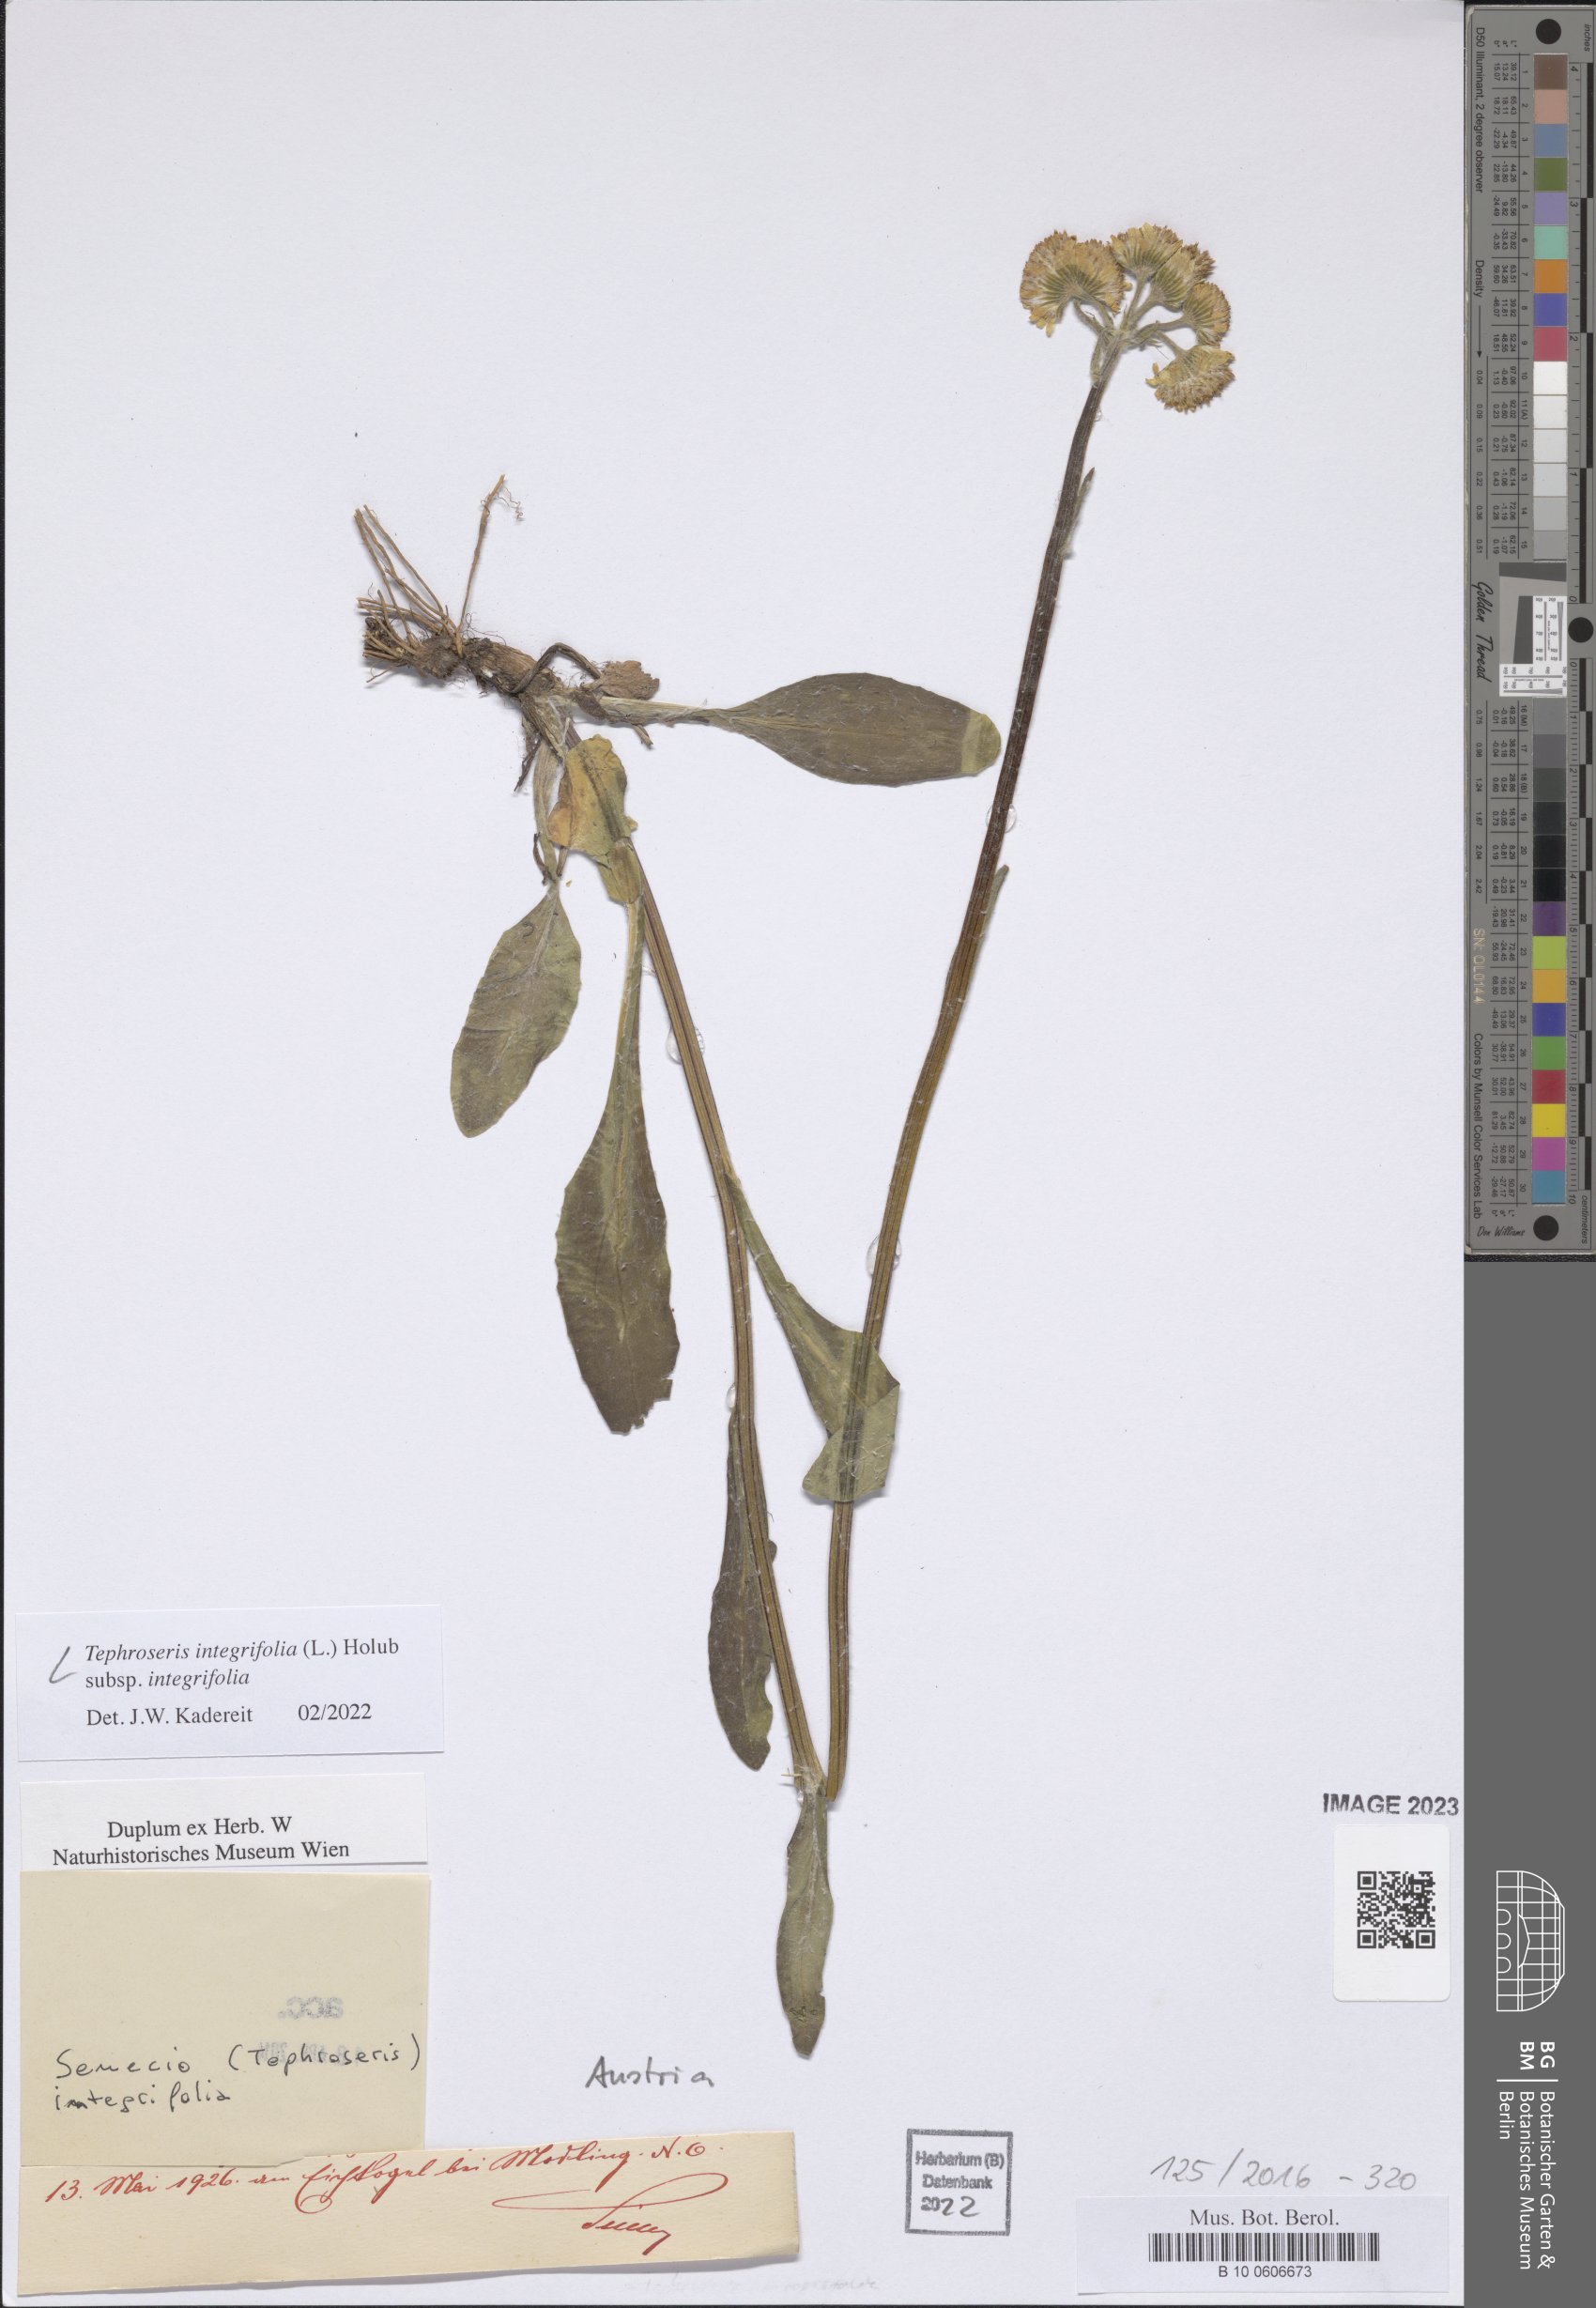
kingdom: Plantae
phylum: Tracheophyta
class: Magnoliopsida
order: Asterales
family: Asteraceae
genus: Tephroseris
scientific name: Tephroseris integrifolia
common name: Field fleawort
